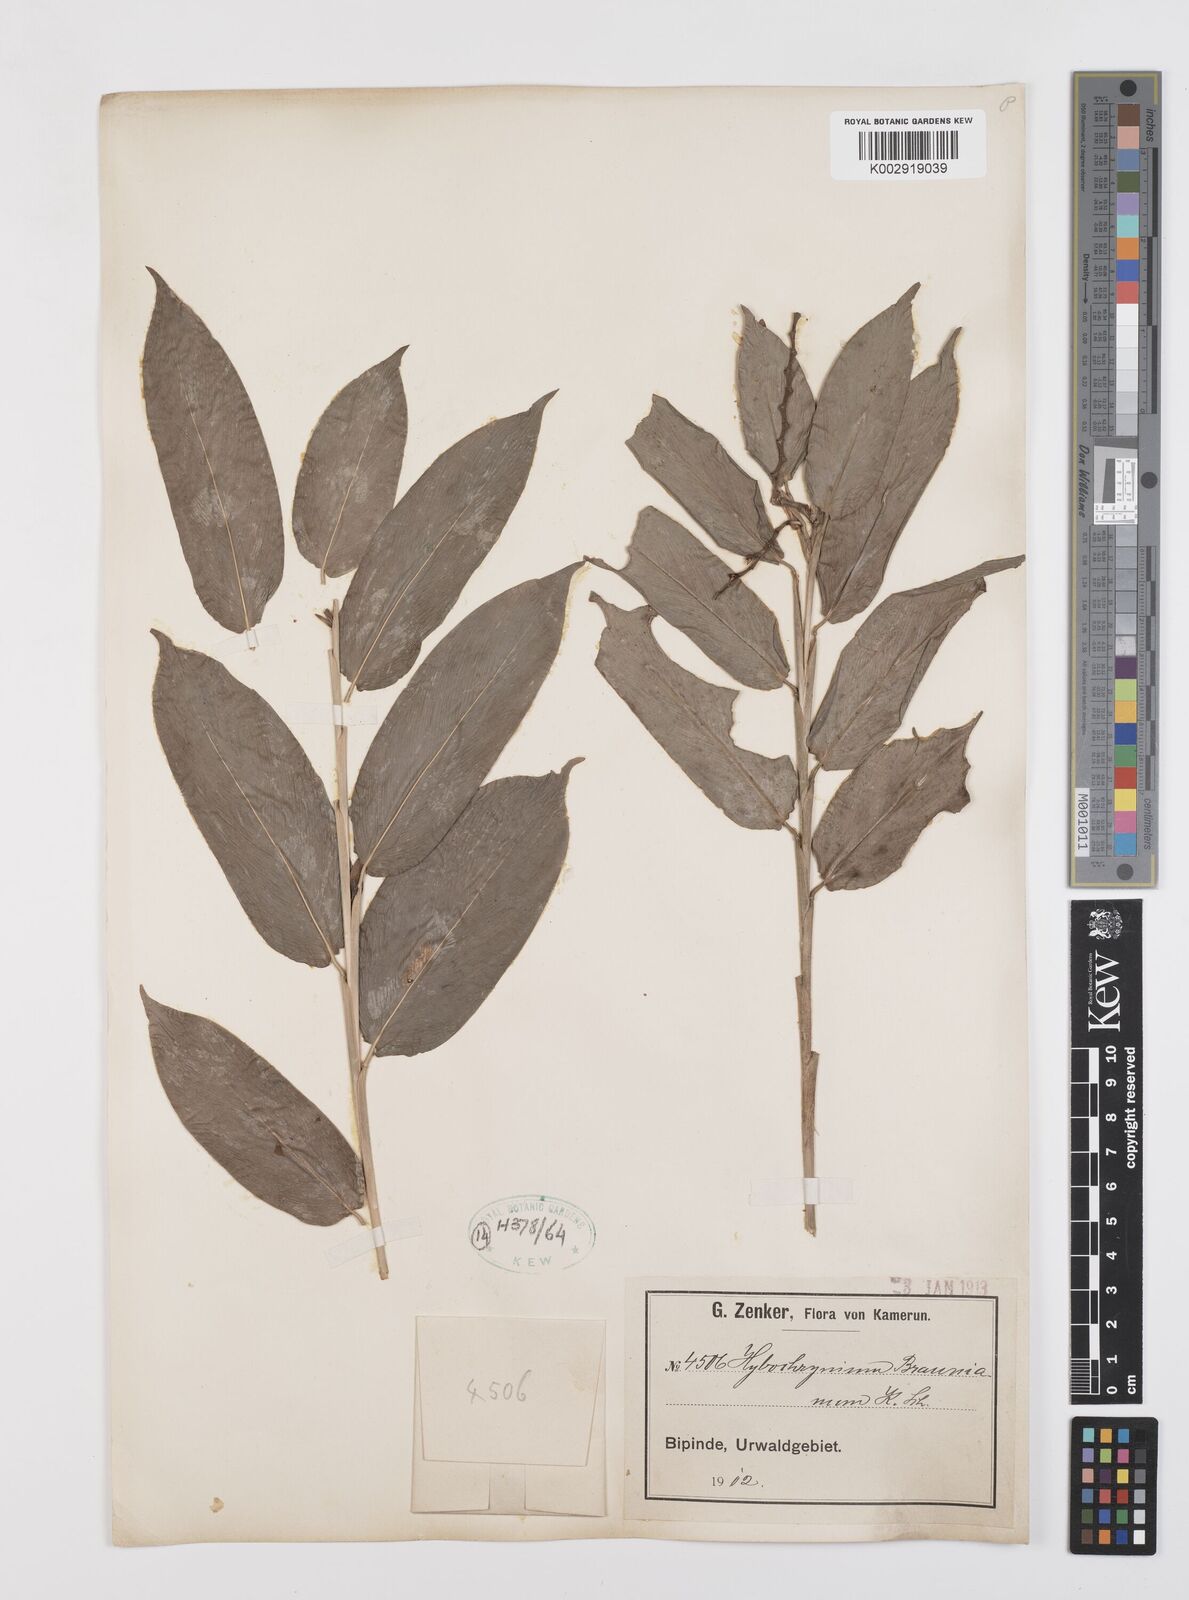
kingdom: Plantae
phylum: Tracheophyta
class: Liliopsida
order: Zingiberales
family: Marantaceae
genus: Trachyphrynium
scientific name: Trachyphrynium braunianum
